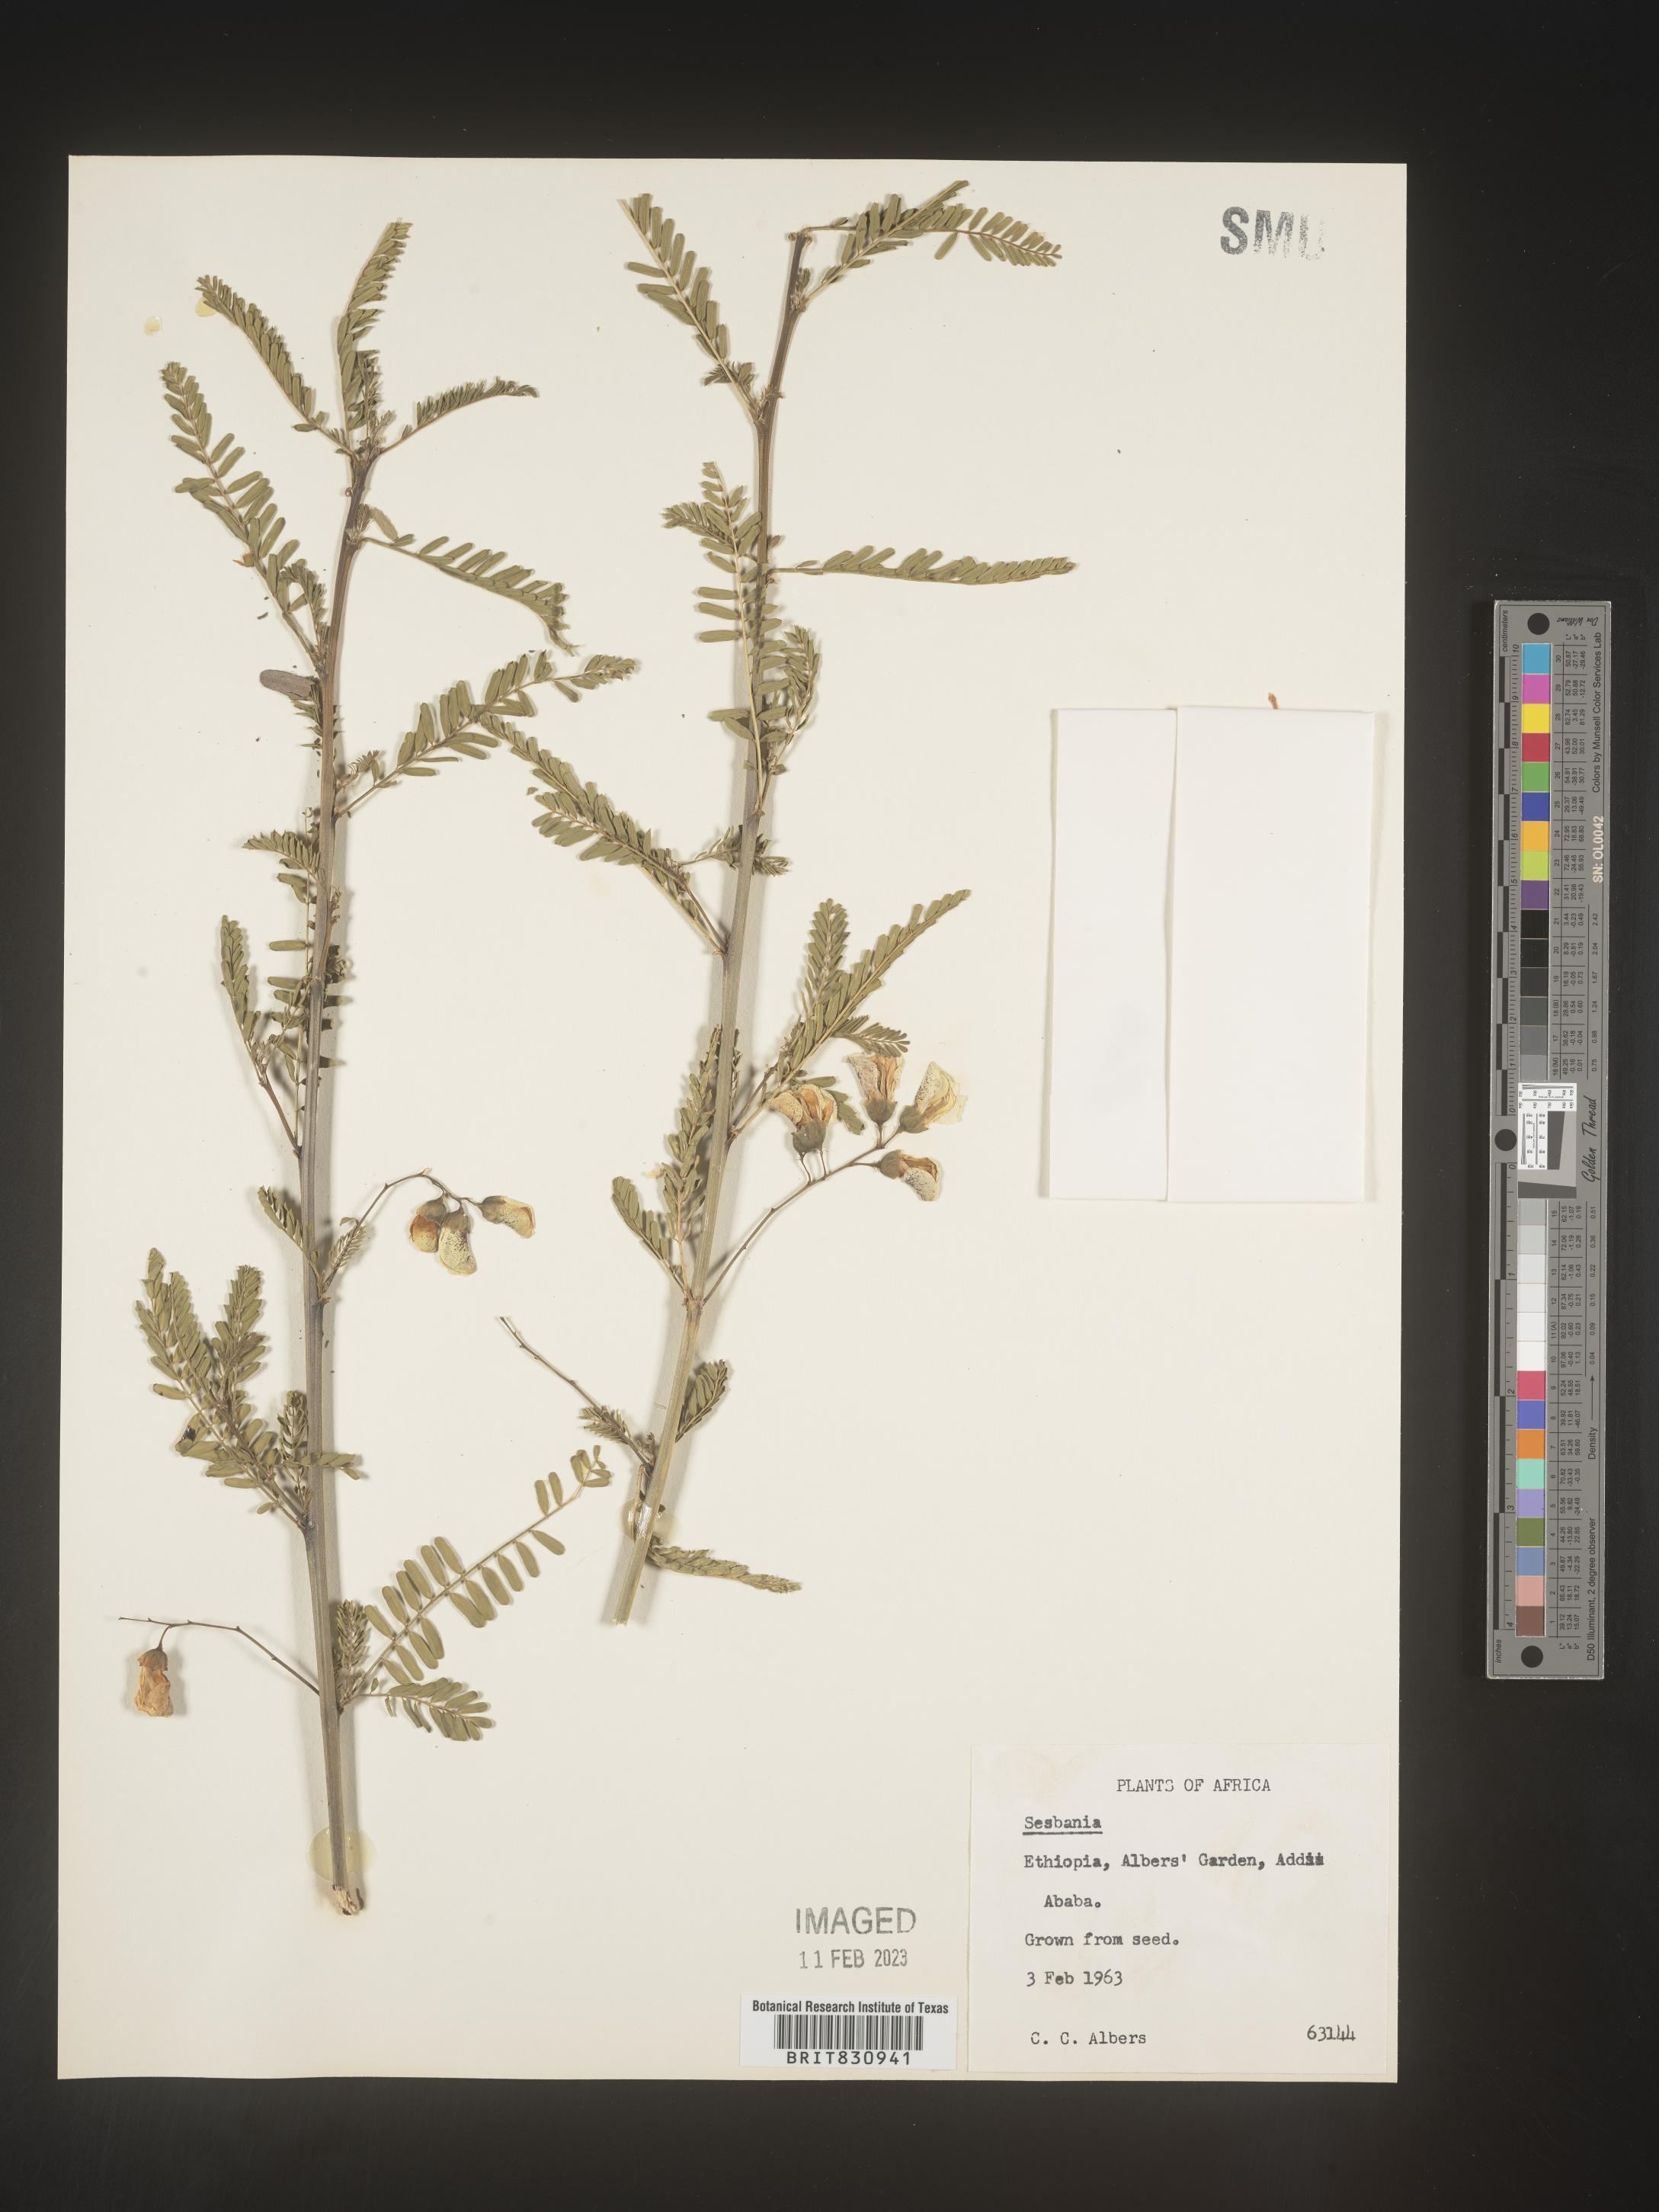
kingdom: Plantae
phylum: Tracheophyta
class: Magnoliopsida
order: Fabales
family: Fabaceae
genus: Sesbania
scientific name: Sesbania
